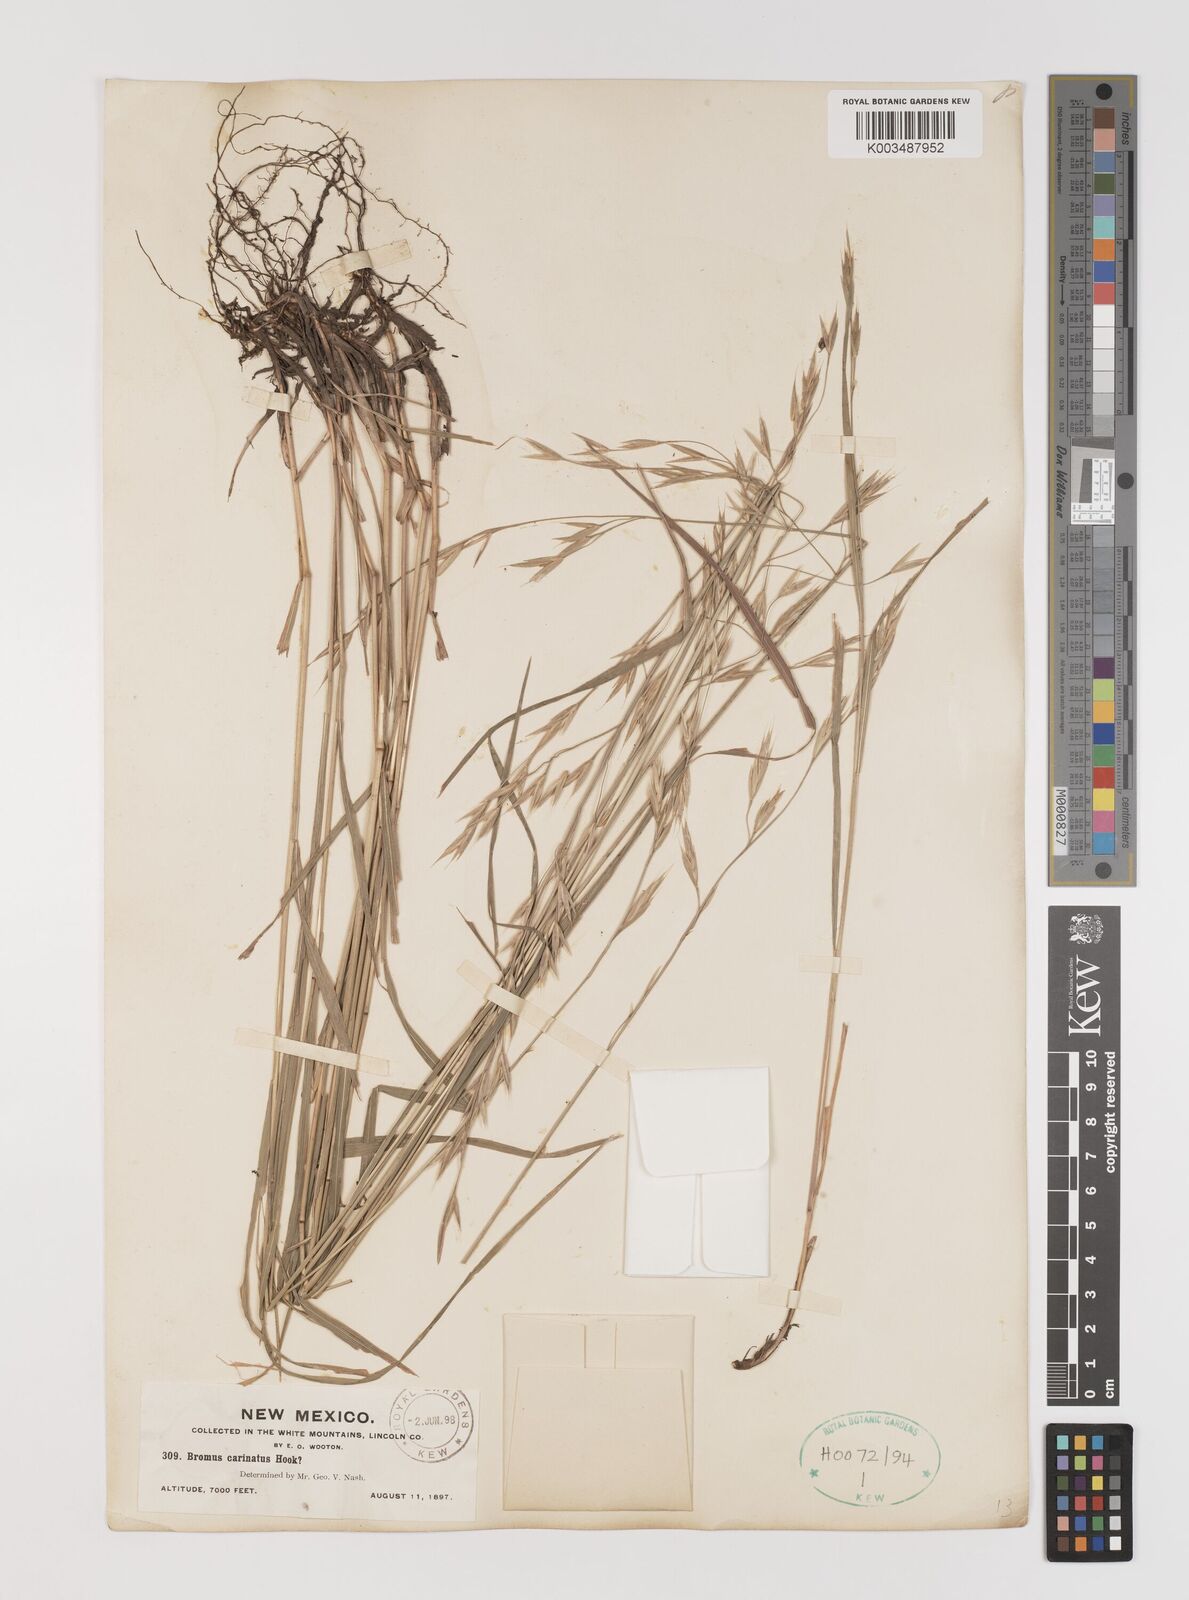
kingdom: Plantae
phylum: Tracheophyta
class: Liliopsida
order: Poales
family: Poaceae
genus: Bromus
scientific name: Bromus carinatus
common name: Mountain brome
